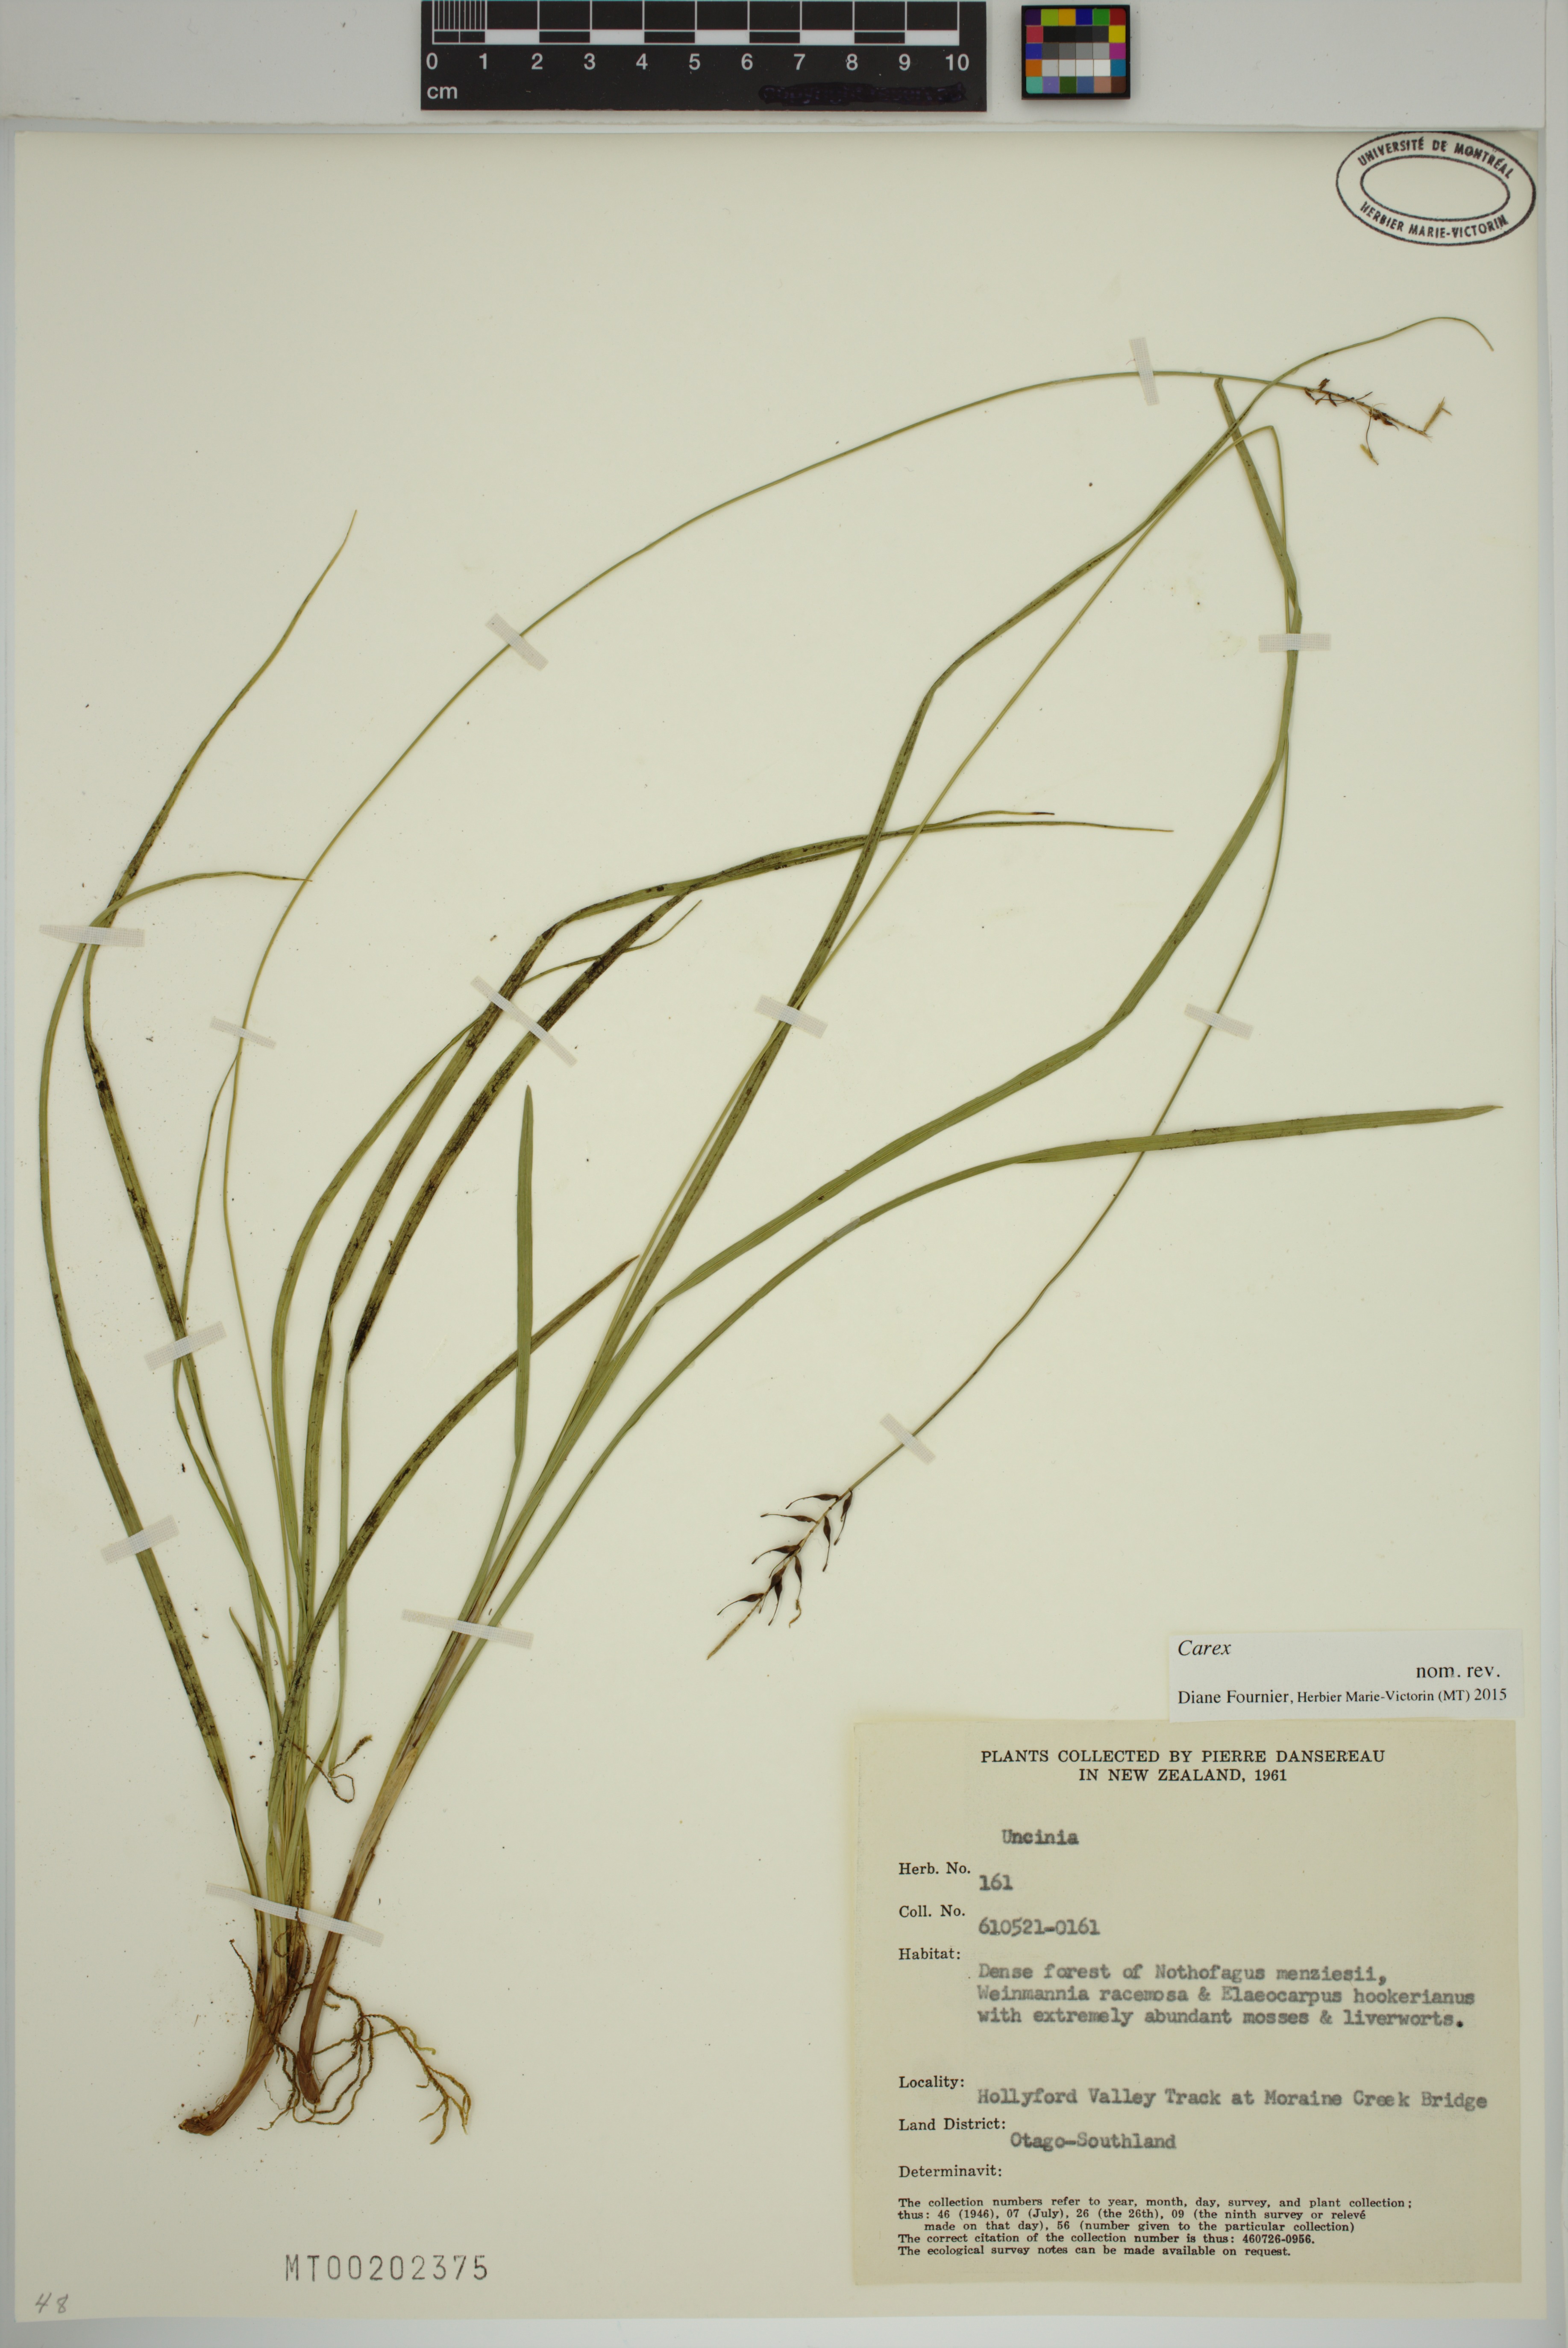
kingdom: Plantae
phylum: Tracheophyta
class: Liliopsida
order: Poales
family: Cyperaceae
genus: Carex
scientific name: Carex
